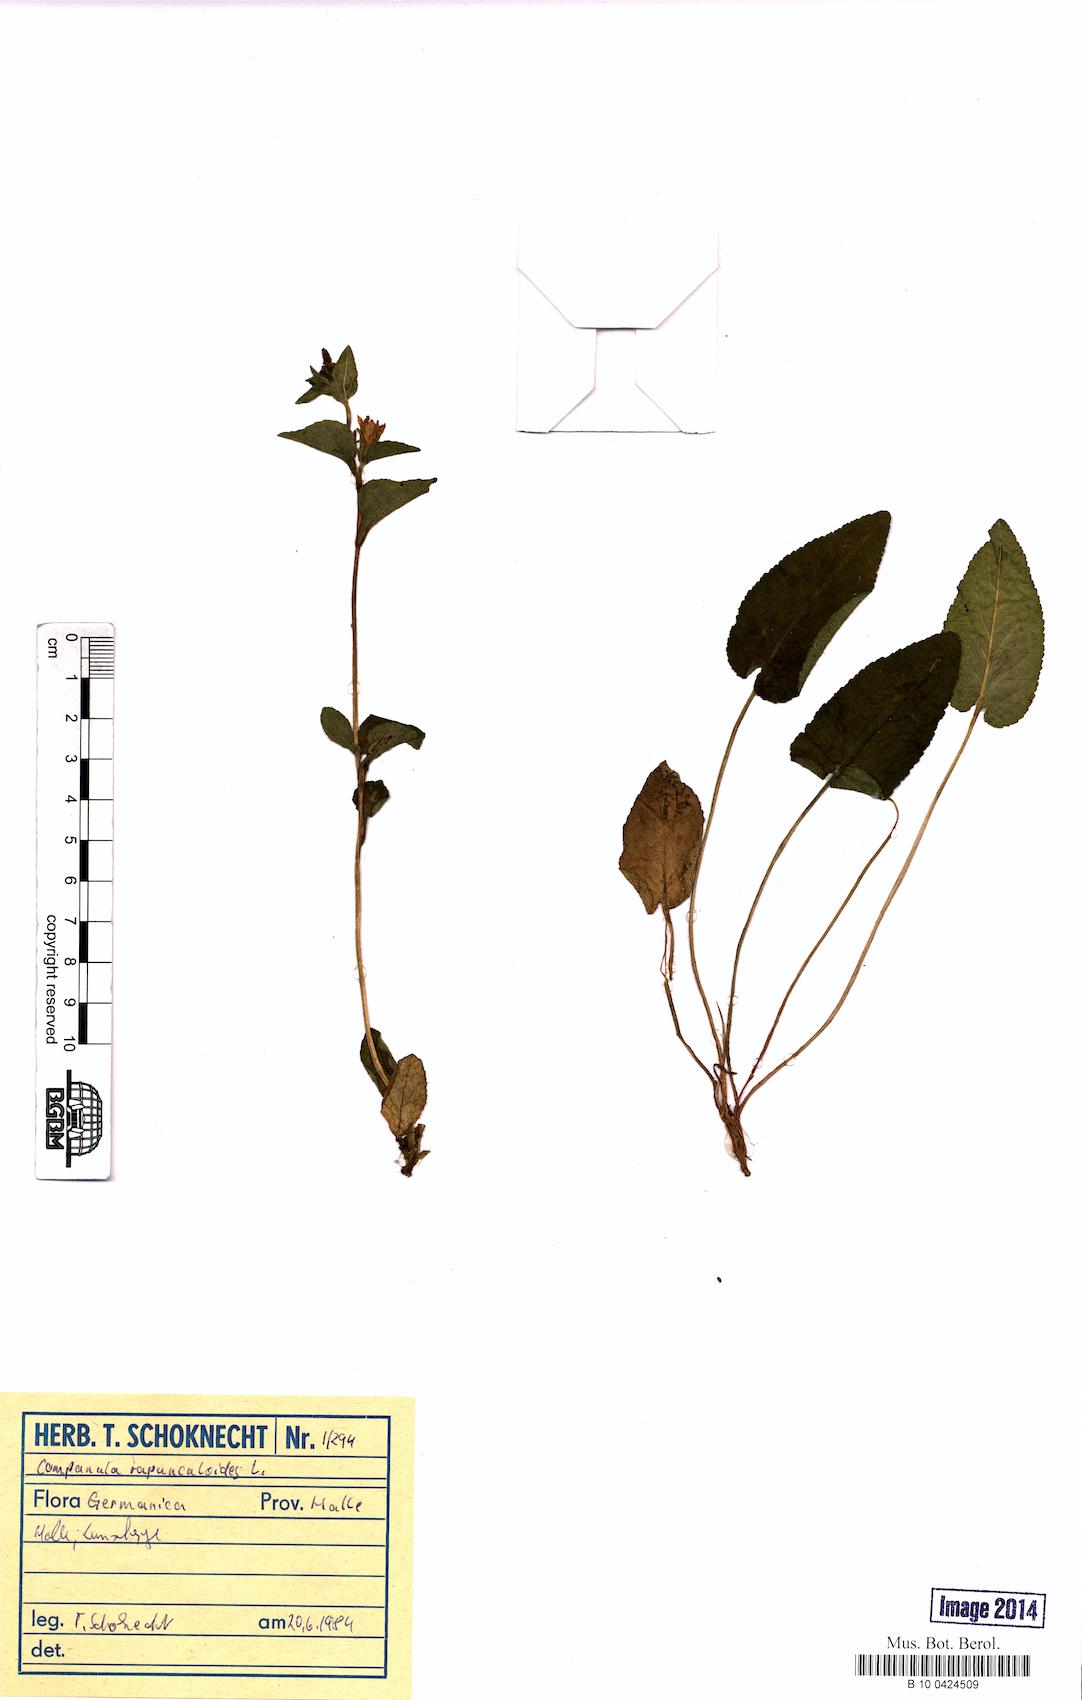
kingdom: Plantae
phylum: Tracheophyta
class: Magnoliopsida
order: Asterales
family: Campanulaceae
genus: Campanula
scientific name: Campanula rapunculoides
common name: Creeping bellflower
